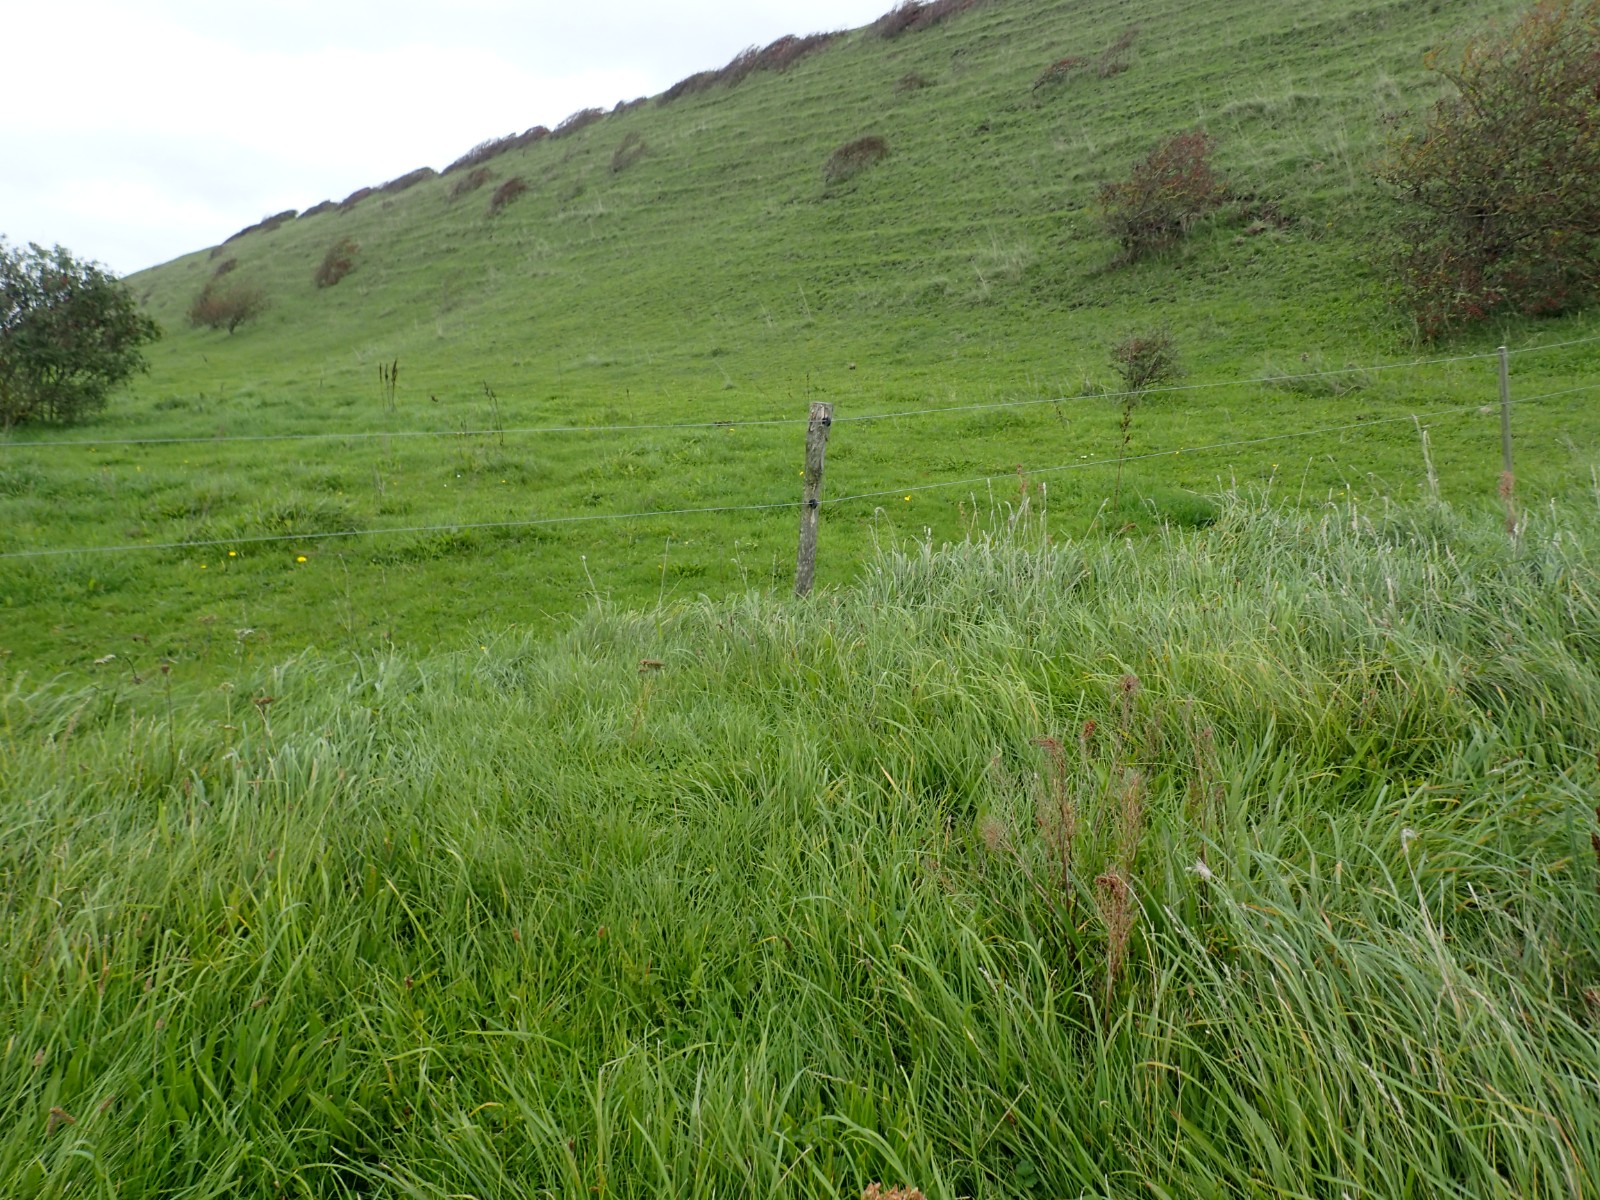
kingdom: Fungi
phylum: Basidiomycota
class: Agaricomycetes
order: Agaricales
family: Hygrophoraceae
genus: Hygrocybe
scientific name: Hygrocybe cantharellus
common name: kantarel-vokshat
